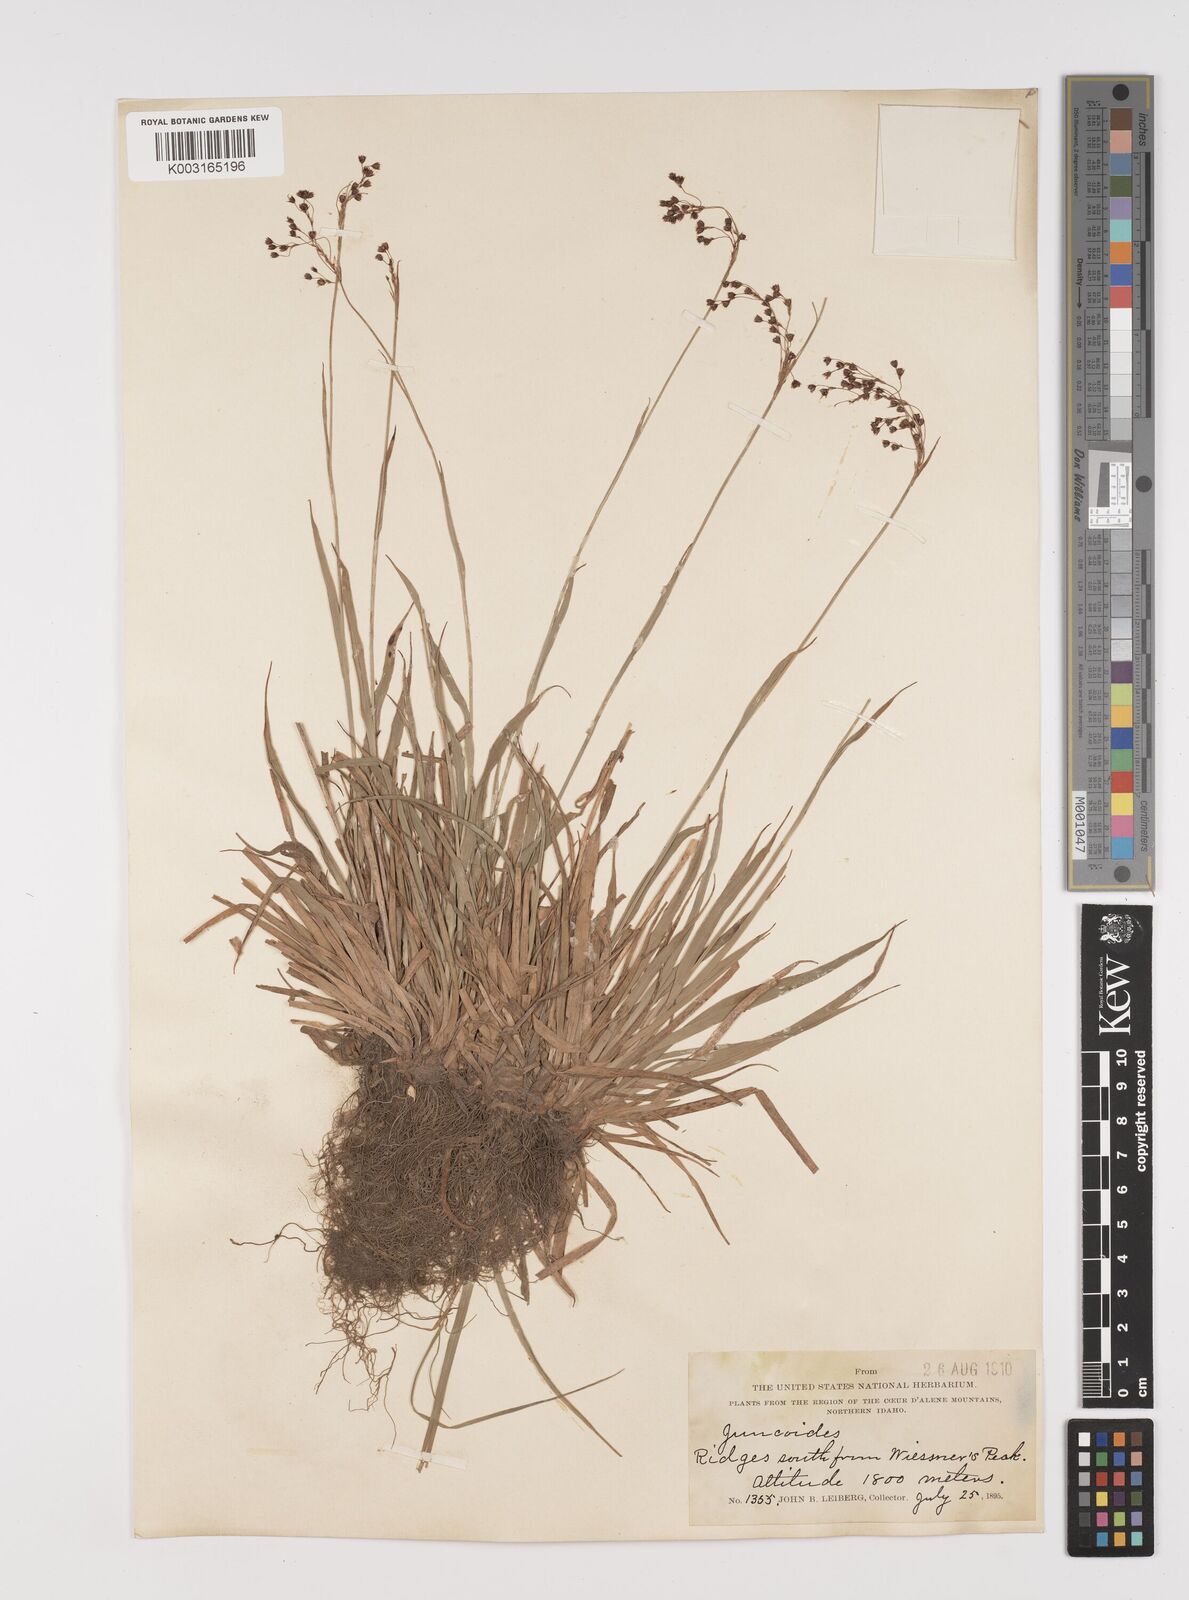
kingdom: Plantae
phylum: Tracheophyta
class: Liliopsida
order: Poales
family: Juncaceae
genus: Luzula
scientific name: Luzula
